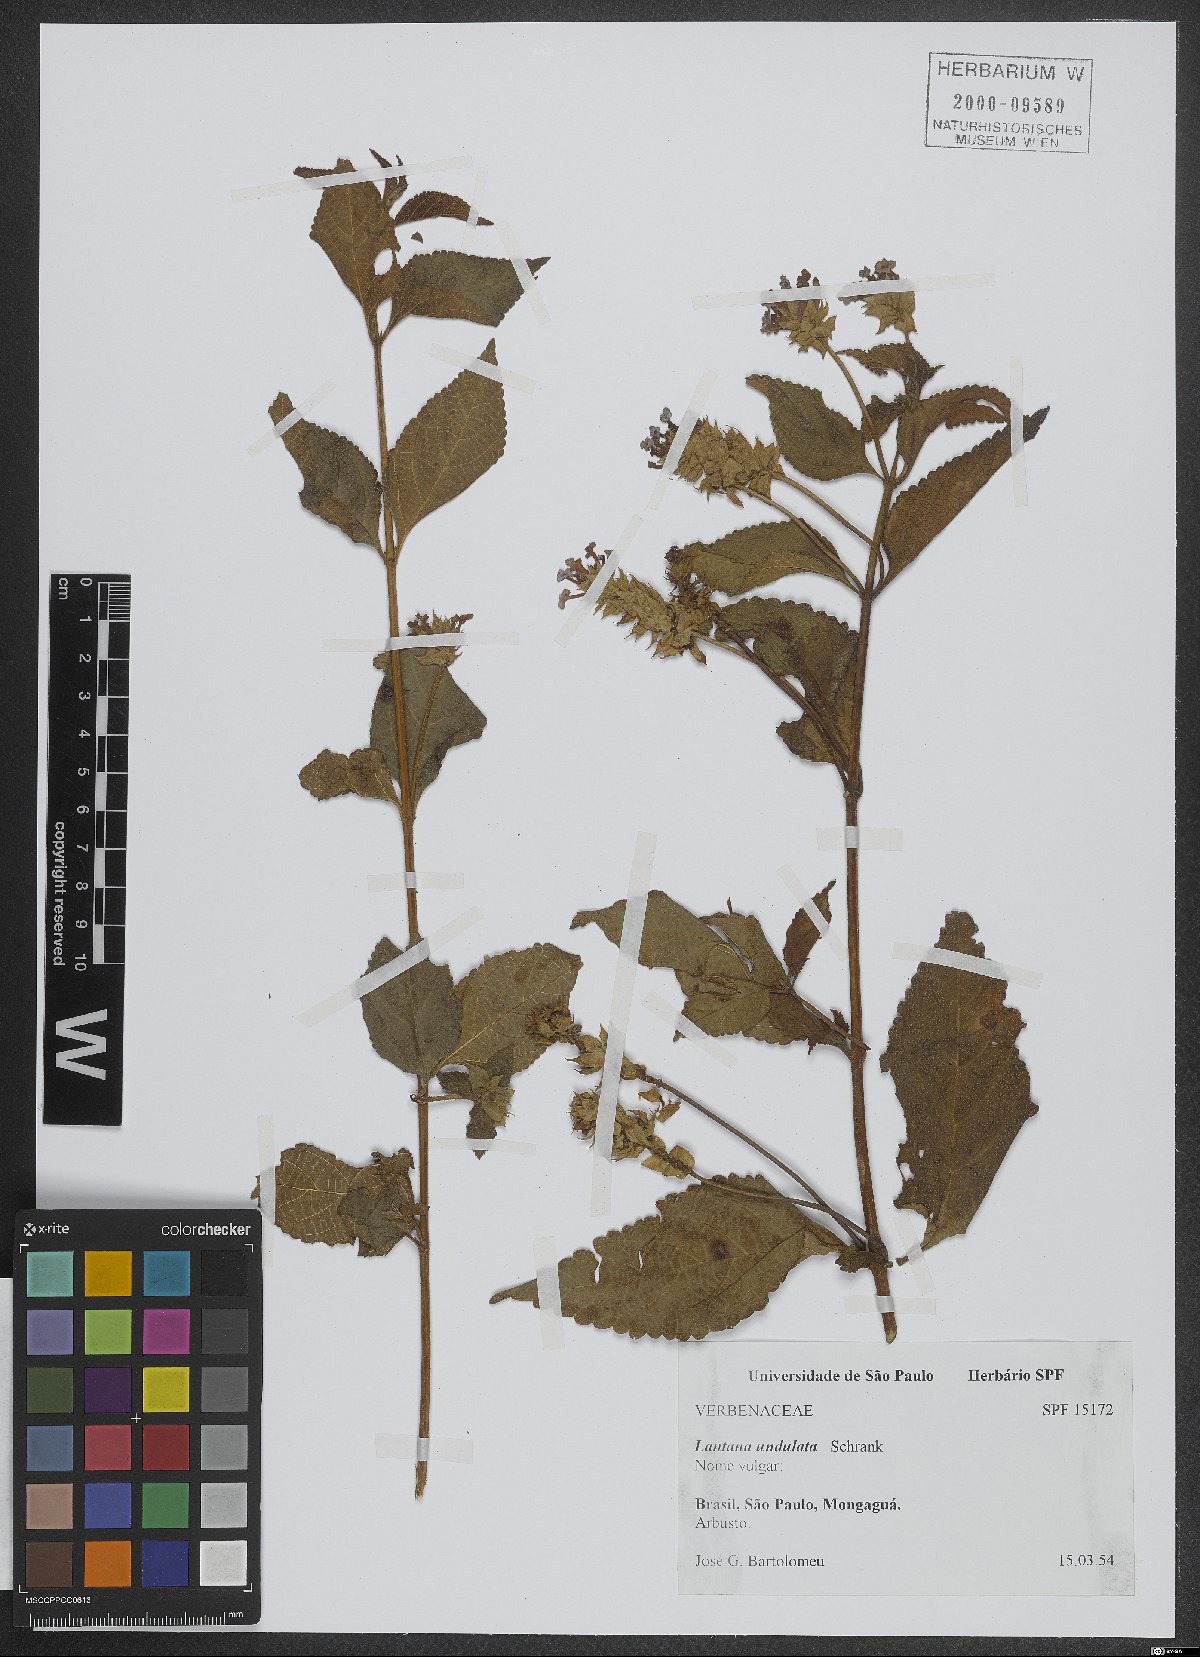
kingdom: Plantae
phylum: Tracheophyta
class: Magnoliopsida
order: Lamiales
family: Verbenaceae
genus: Lantana
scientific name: Lantana undulata
